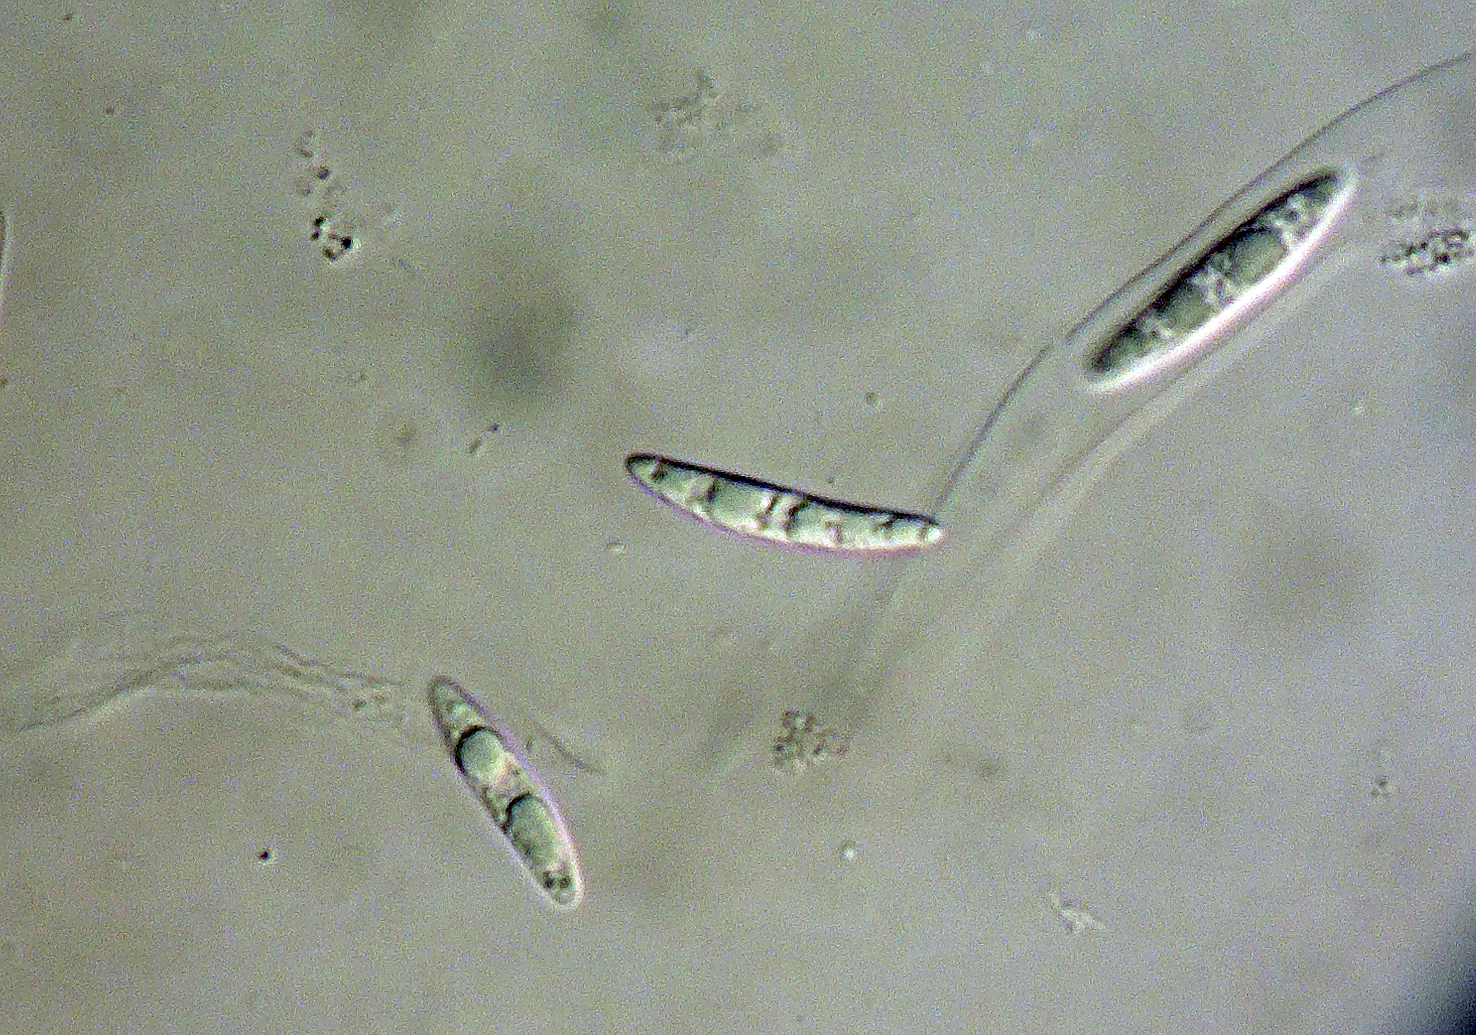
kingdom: Fungi
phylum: Ascomycota
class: Sordariomycetes
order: Chaetosphaeriales
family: Chaetosphaeriaceae
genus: Menispora
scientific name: Menispora caesia
